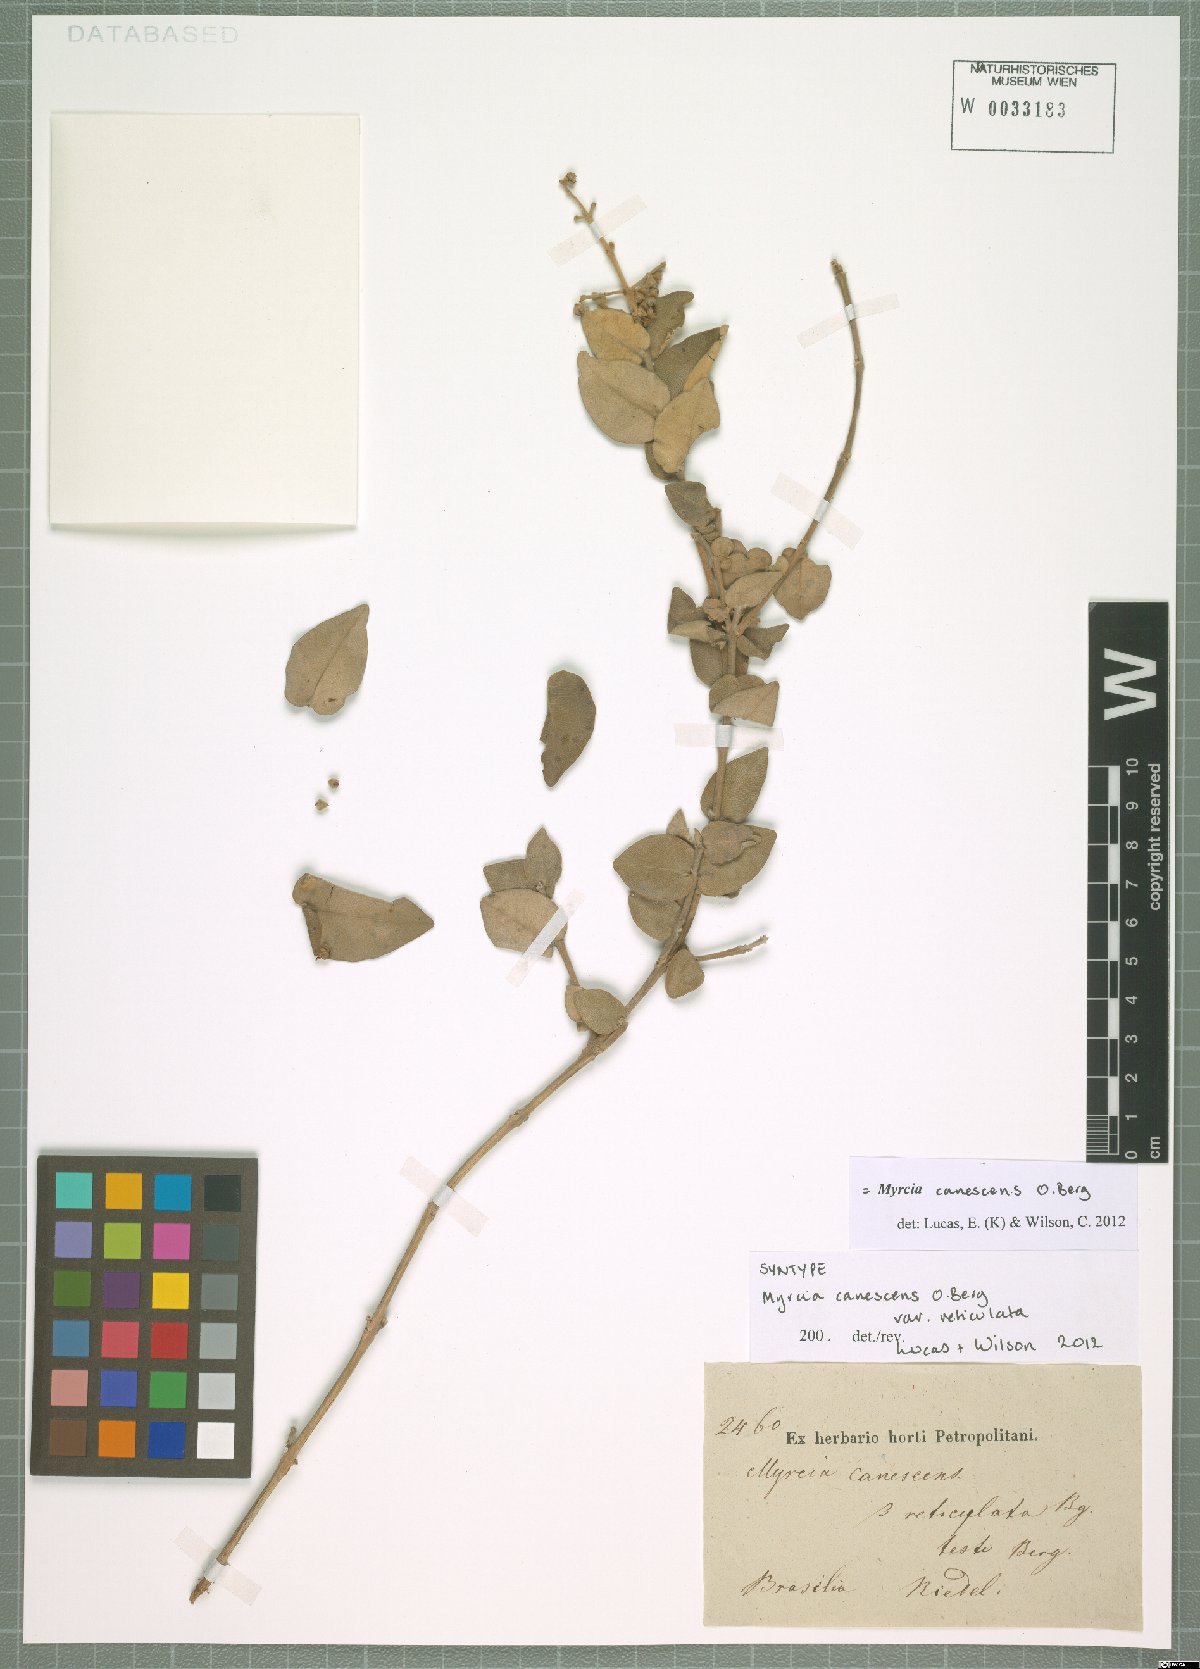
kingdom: Plantae
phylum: Tracheophyta
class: Magnoliopsida
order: Myrtales
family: Myrtaceae
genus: Myrcia
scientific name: Myrcia canescens
